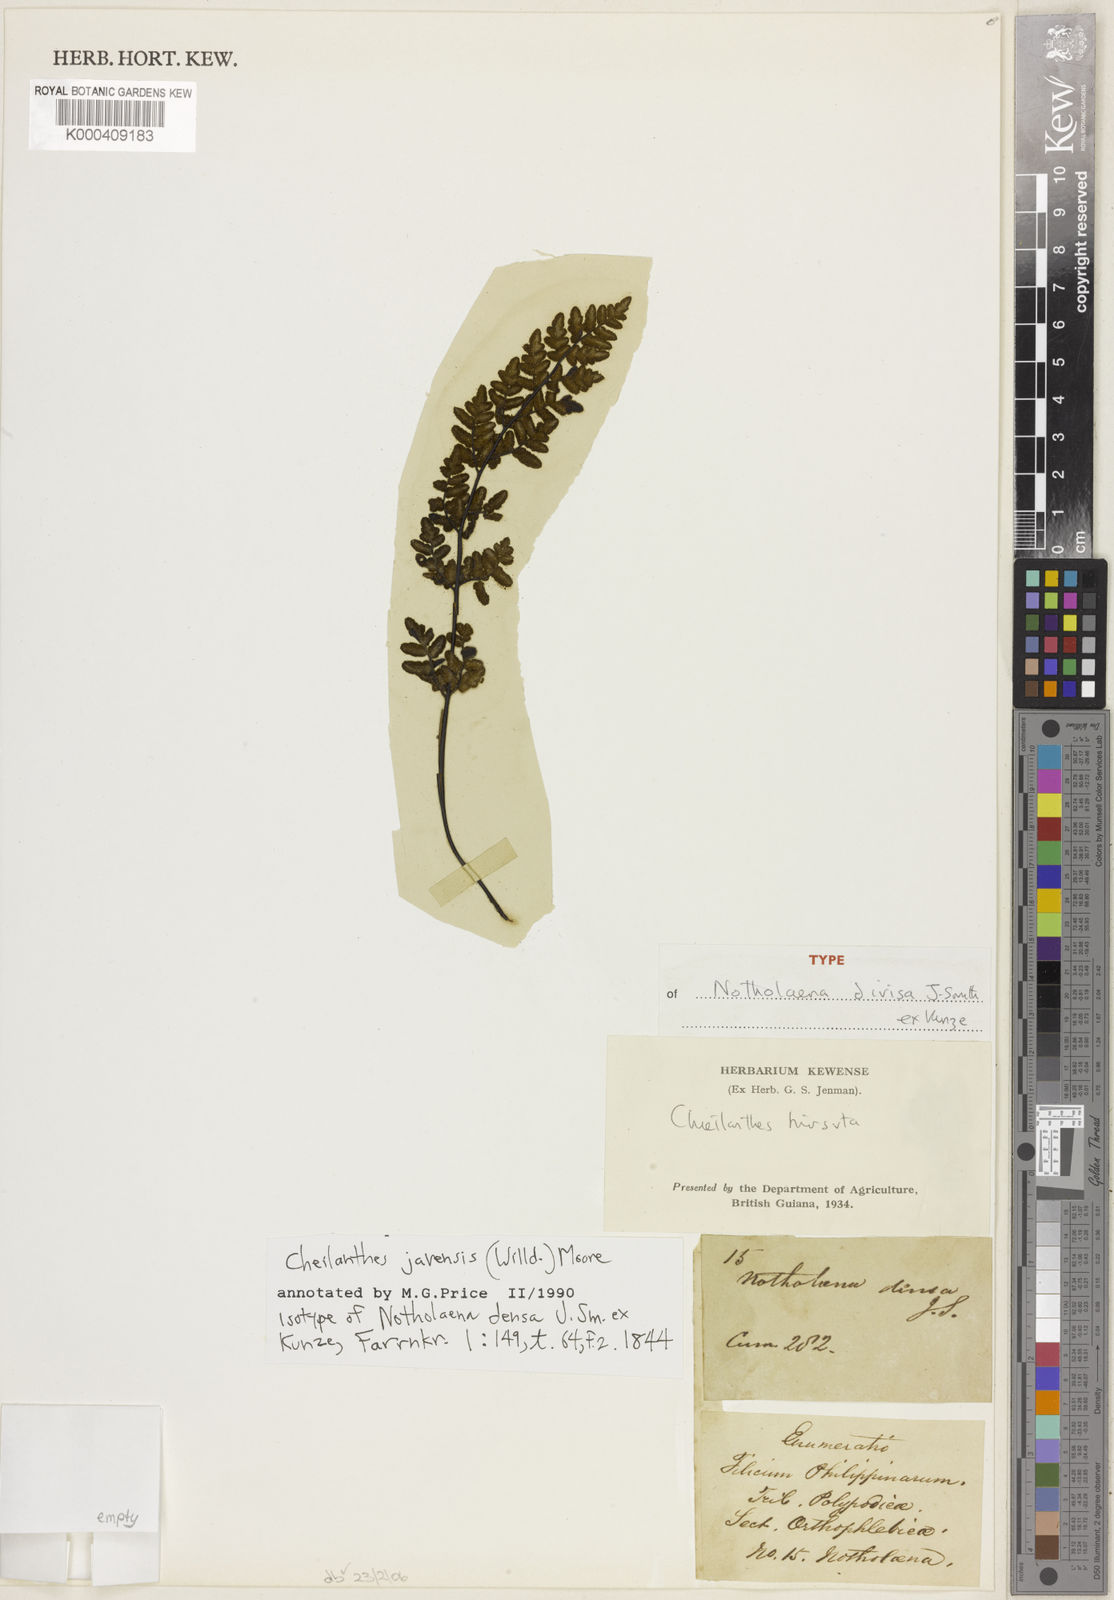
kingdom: Plantae
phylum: Tracheophyta
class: Polypodiopsida
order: Polypodiales
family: Pteridaceae
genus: Cheilanthes
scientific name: Cheilanthes nudiuscula
